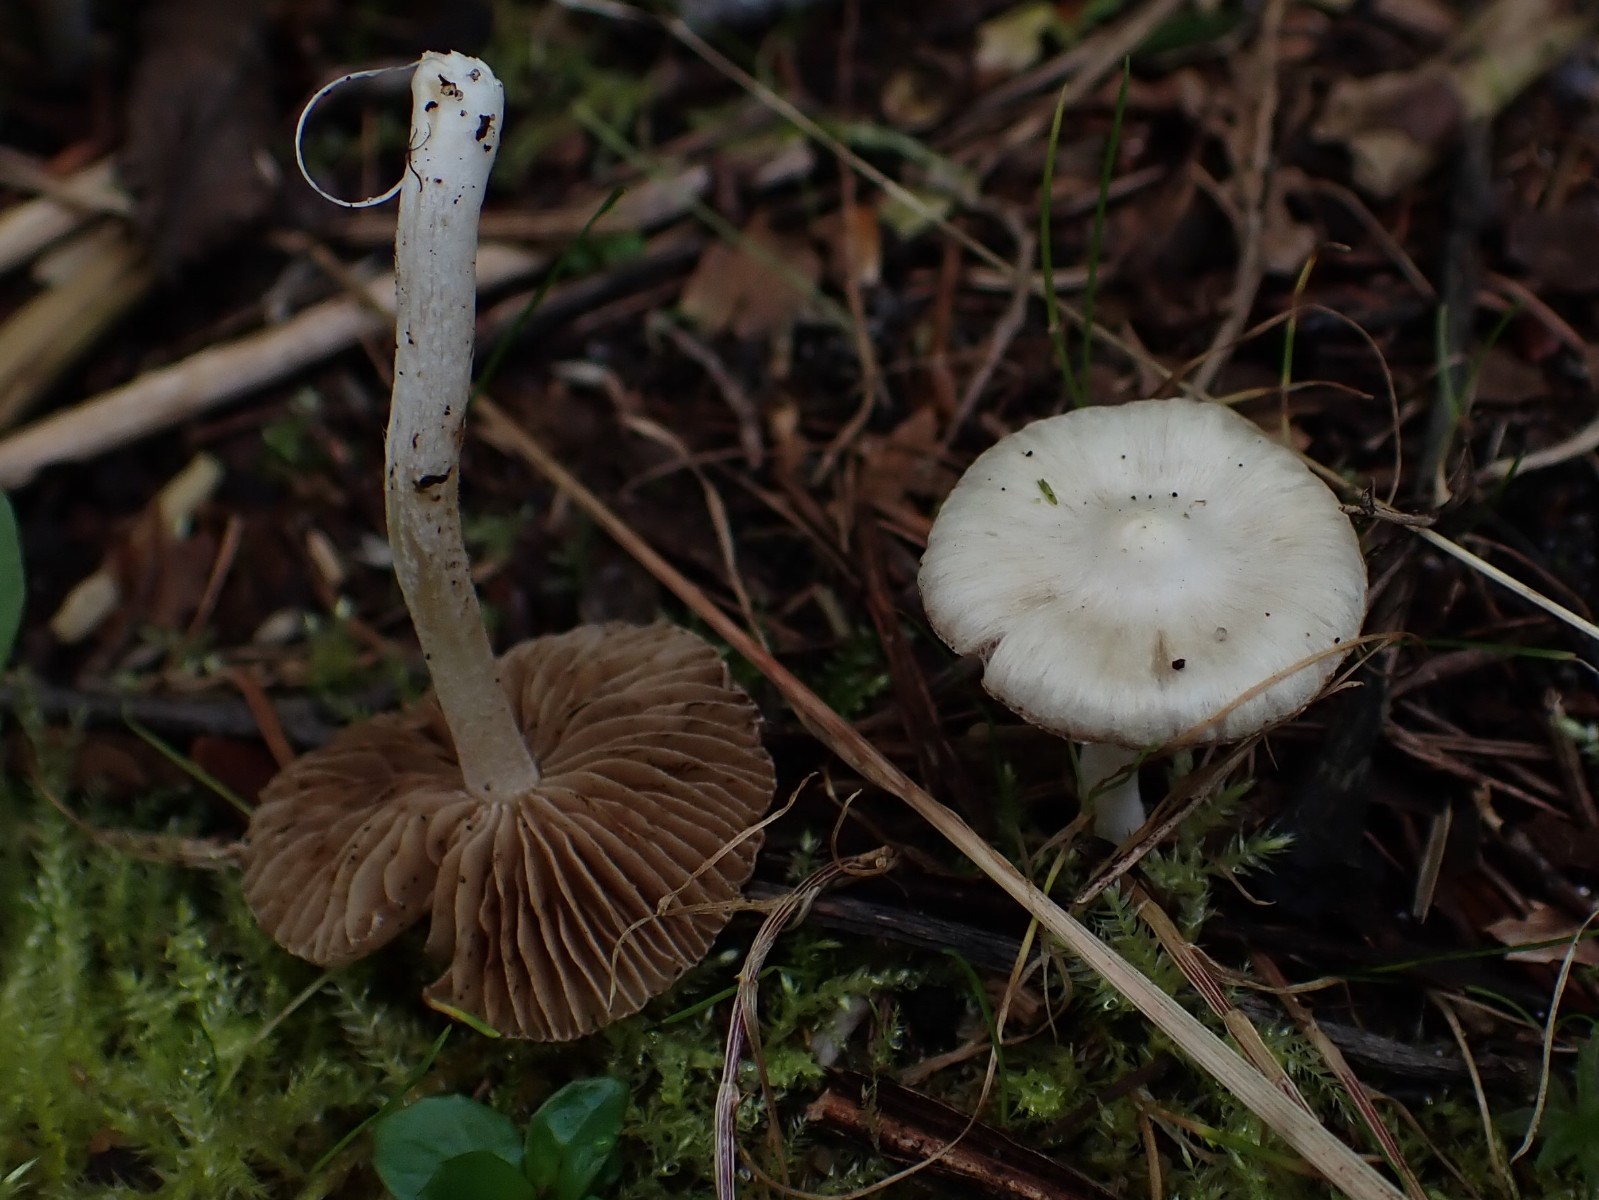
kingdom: Fungi
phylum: Basidiomycota
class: Agaricomycetes
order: Agaricales
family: Inocybaceae
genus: Inocybe
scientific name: Inocybe
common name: almindelig trævlhat
